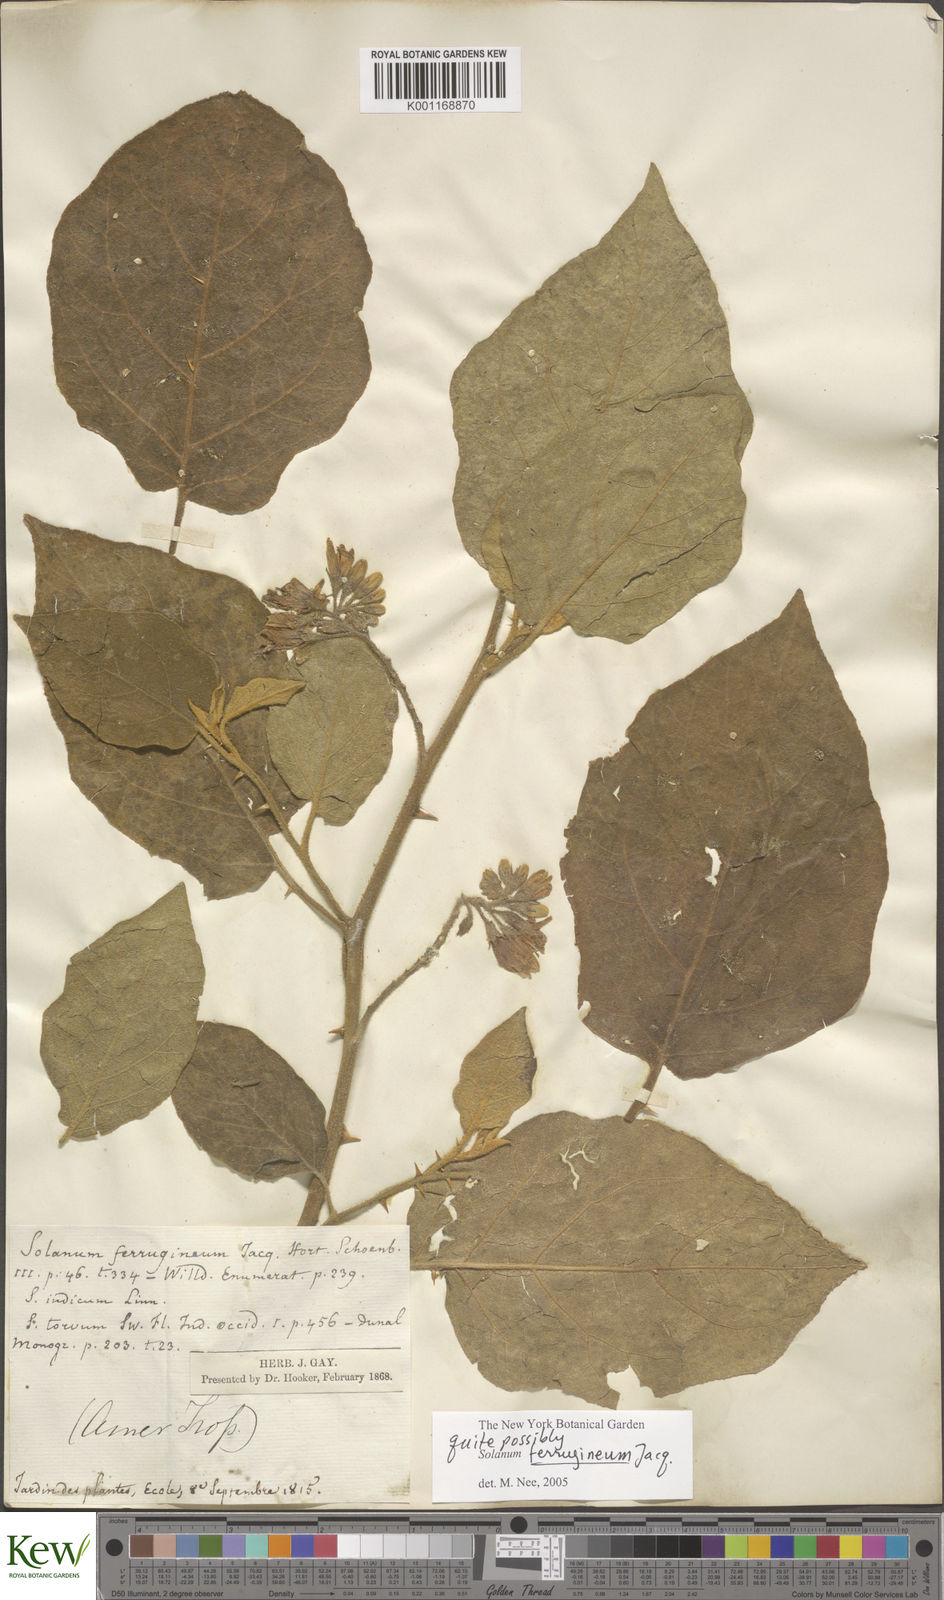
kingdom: Plantae
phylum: Tracheophyta
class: Magnoliopsida
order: Solanales
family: Solanaceae
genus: Solanum
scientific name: Solanum ferrugineum
